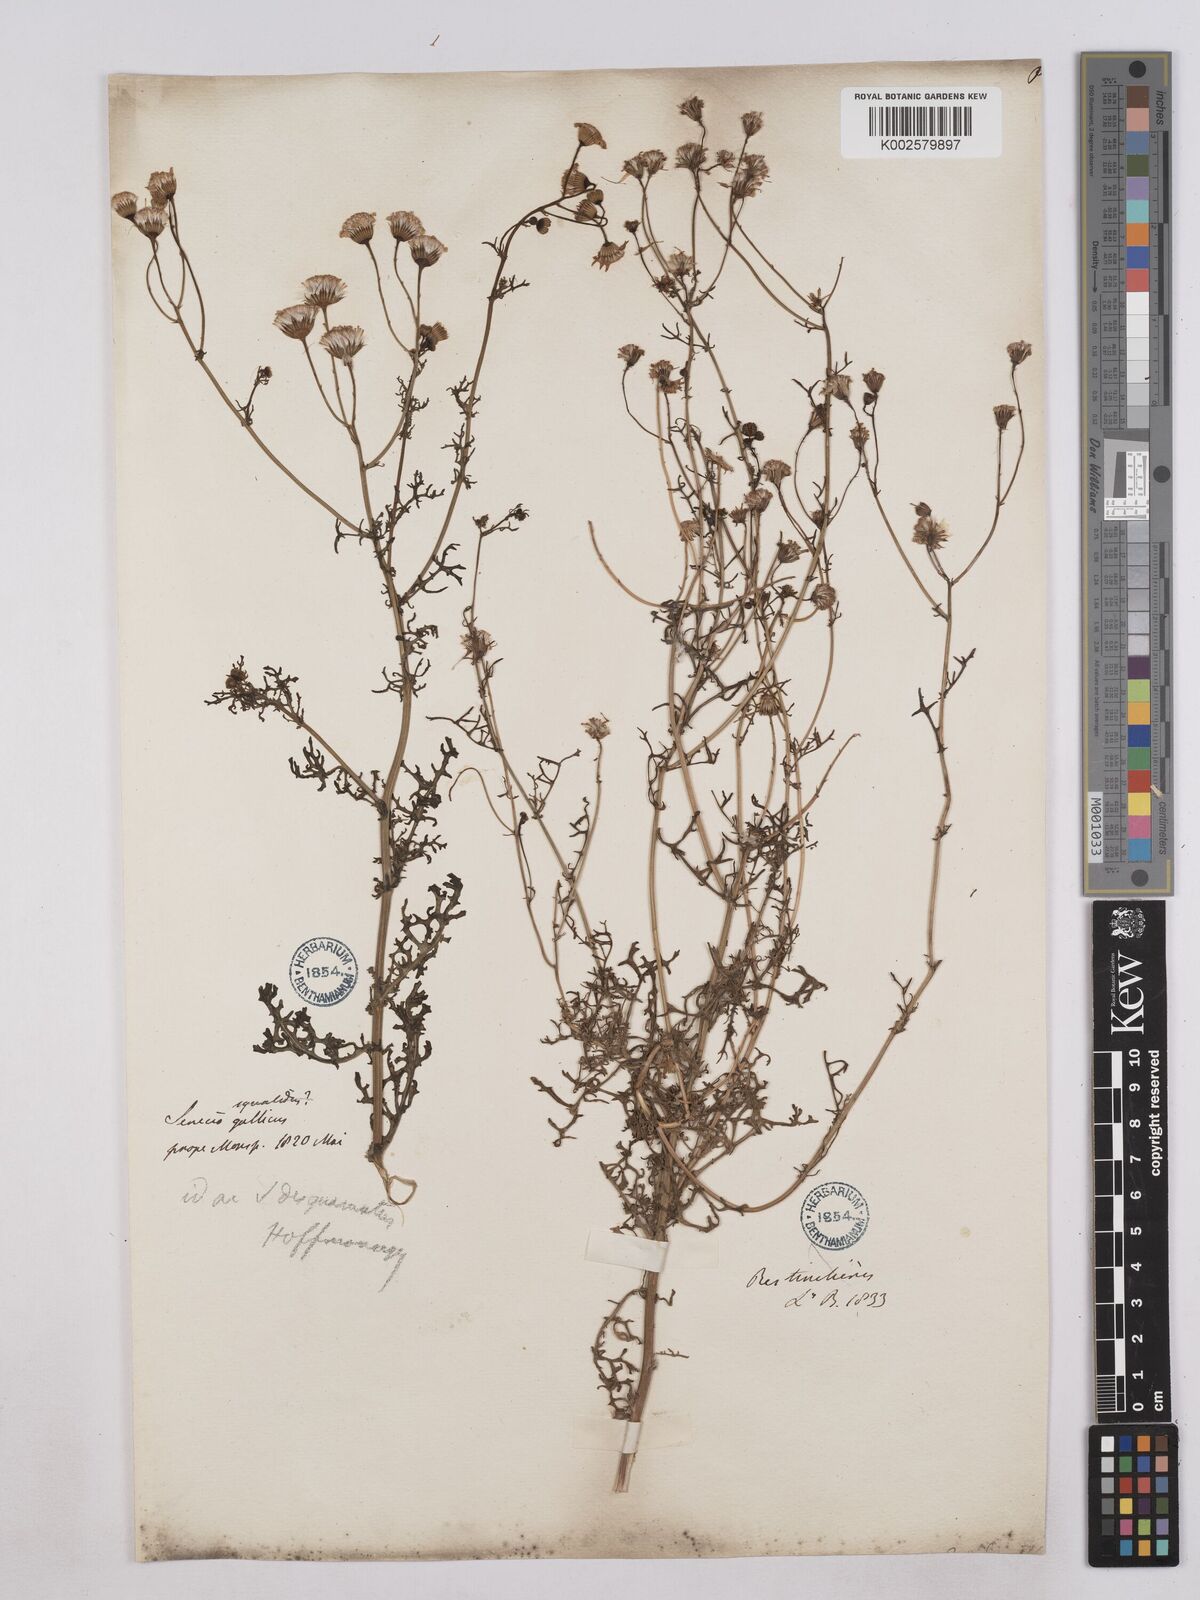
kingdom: Plantae
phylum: Tracheophyta
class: Magnoliopsida
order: Asterales
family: Asteraceae
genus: Senecio
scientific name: Senecio gallicus
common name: French groundsel
